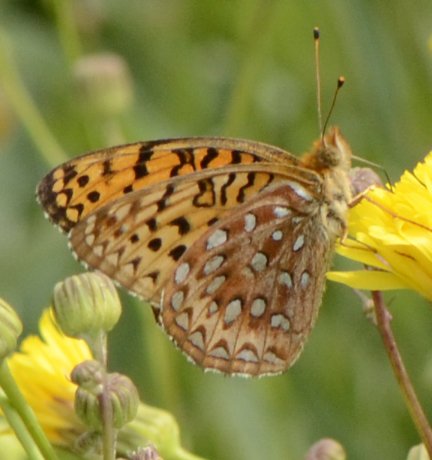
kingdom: Animalia
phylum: Arthropoda
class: Insecta
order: Lepidoptera
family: Nymphalidae
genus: Speyeria
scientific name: Speyeria aphrodite
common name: Aphrodite Fritillary
